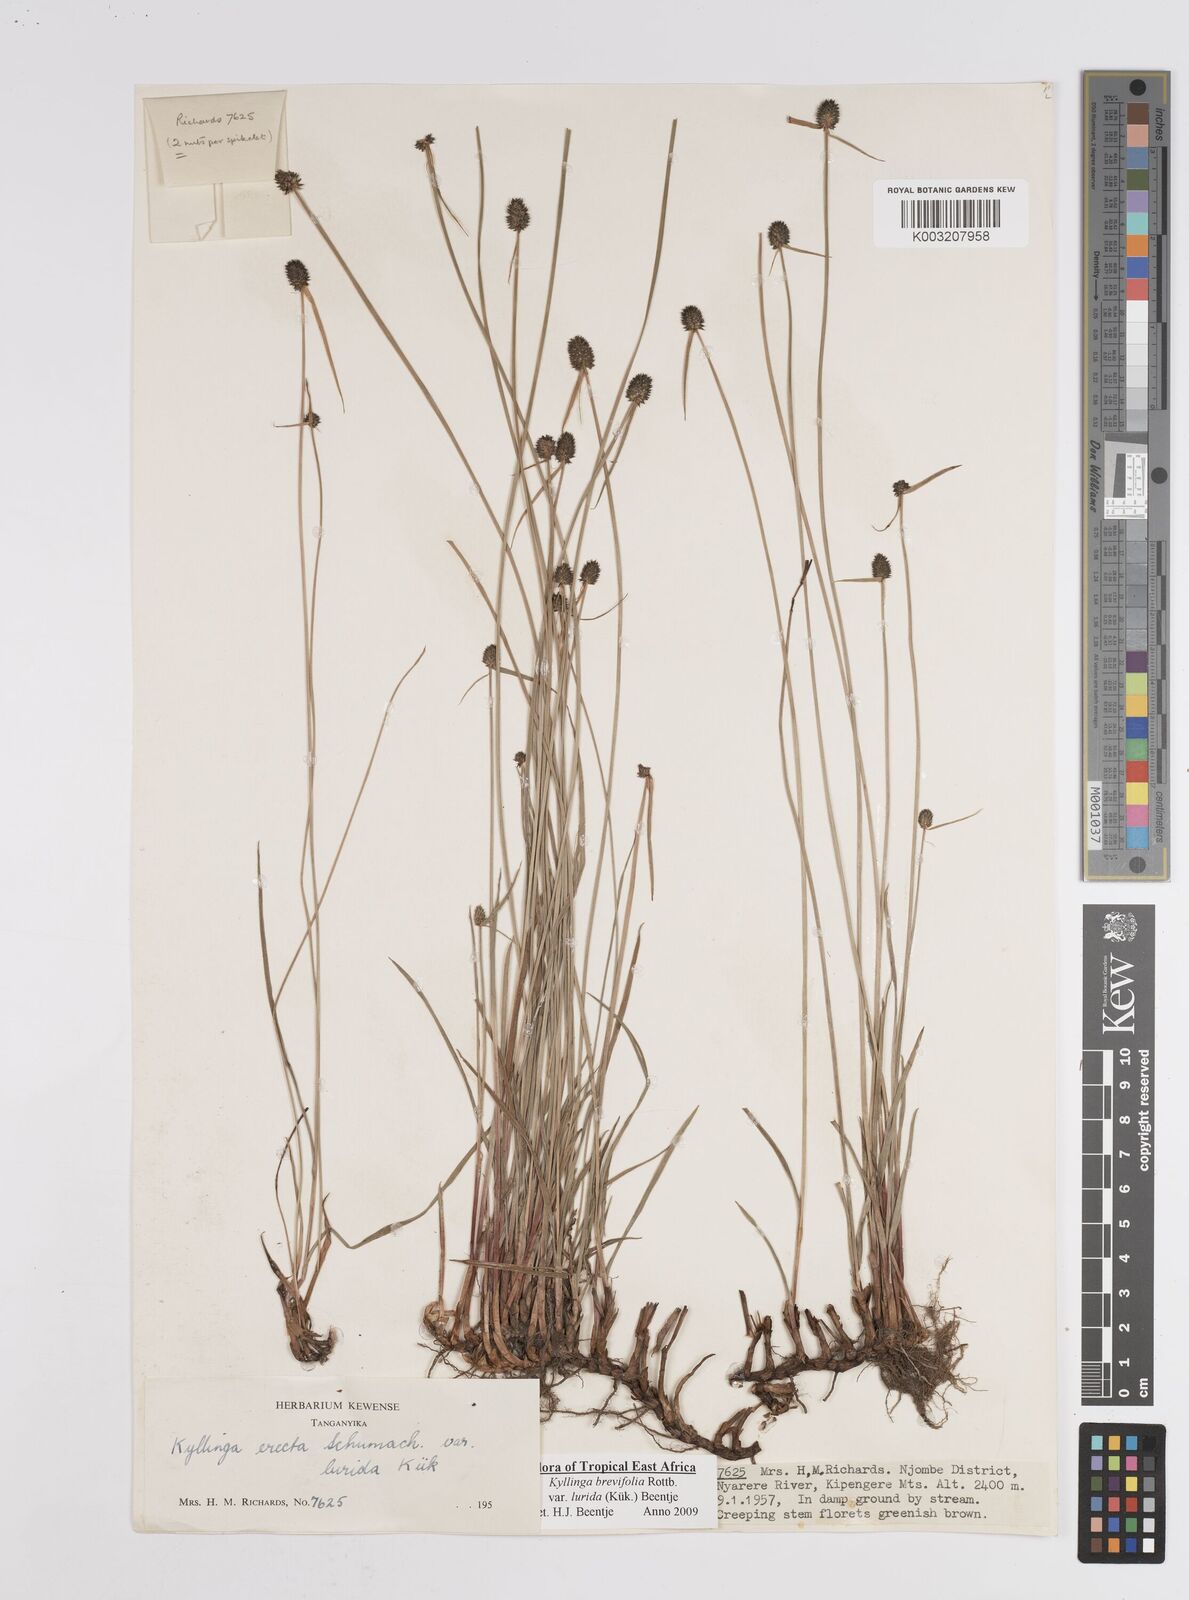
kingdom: Plantae
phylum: Tracheophyta
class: Liliopsida
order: Poales
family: Cyperaceae
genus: Cyperus
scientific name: Cyperus erectus
